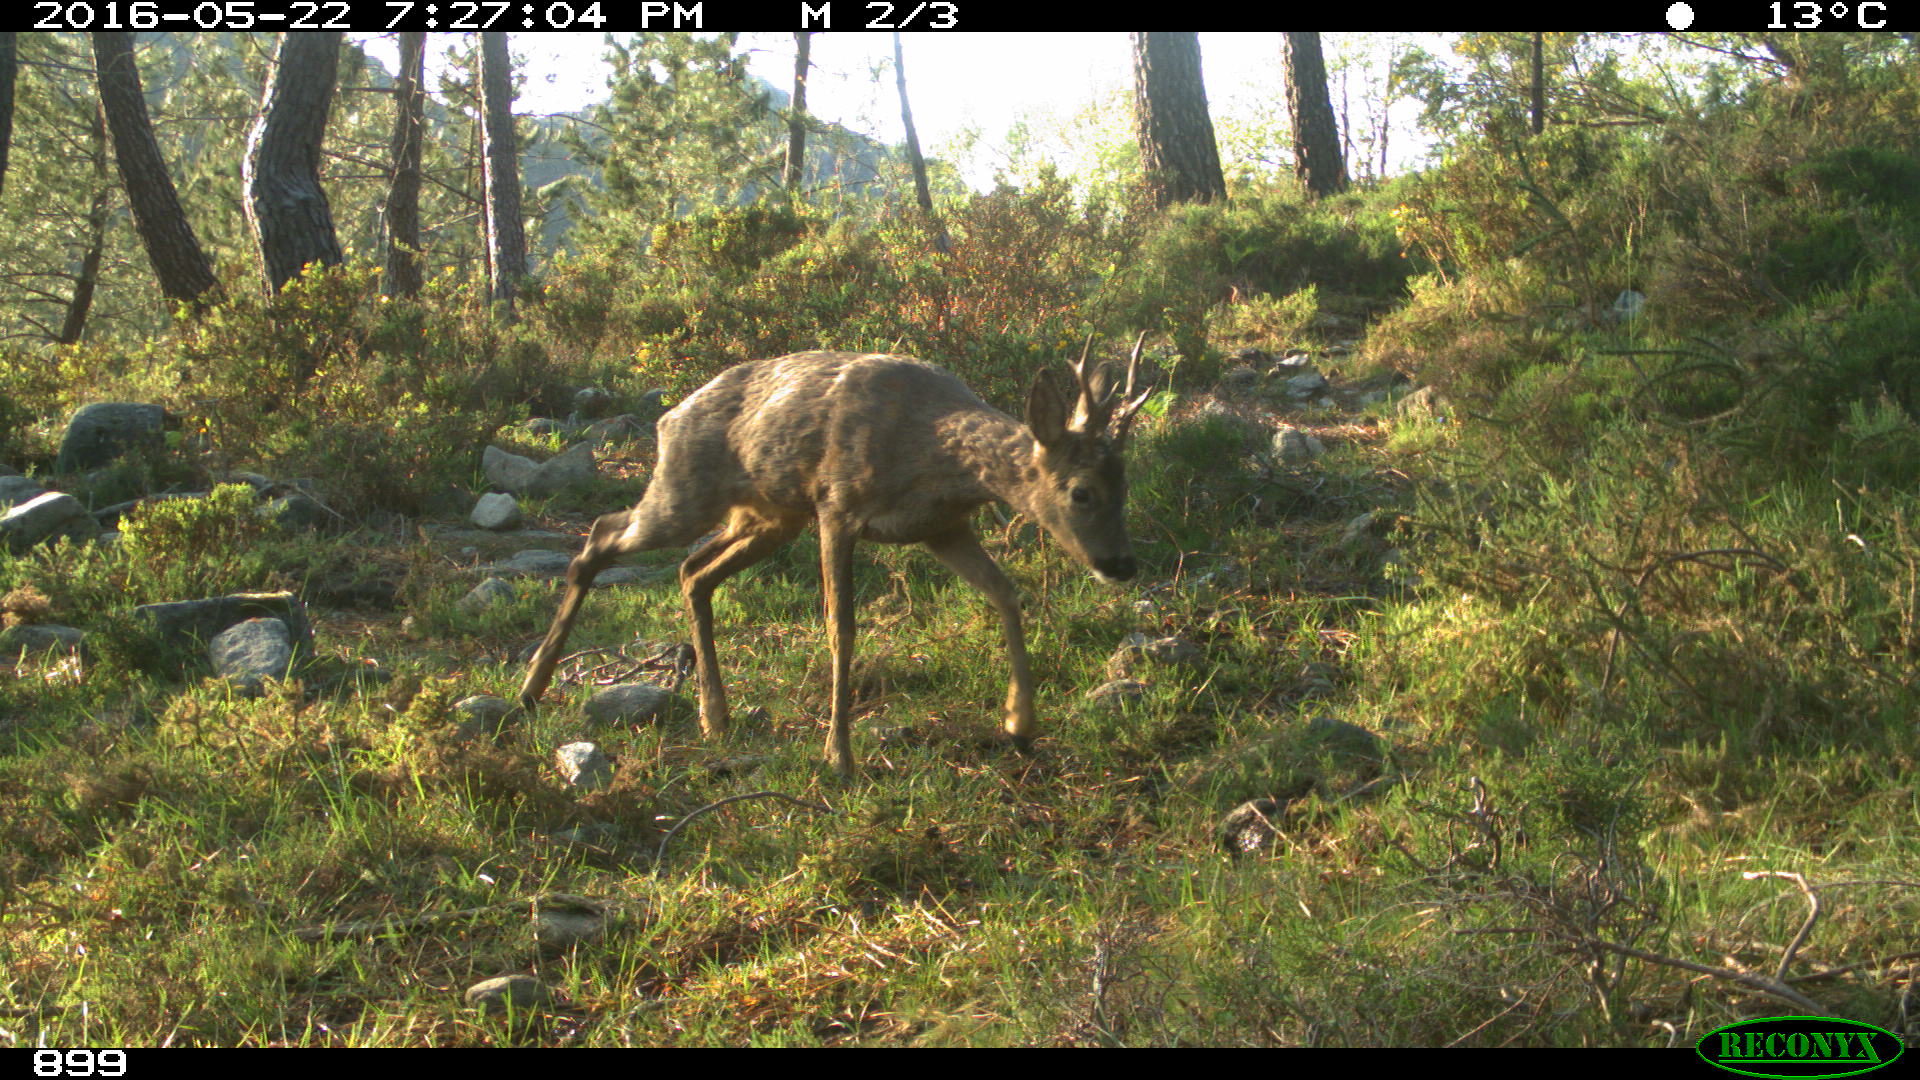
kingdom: Animalia
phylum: Chordata
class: Mammalia
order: Artiodactyla
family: Cervidae
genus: Capreolus
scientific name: Capreolus capreolus
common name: Western roe deer
